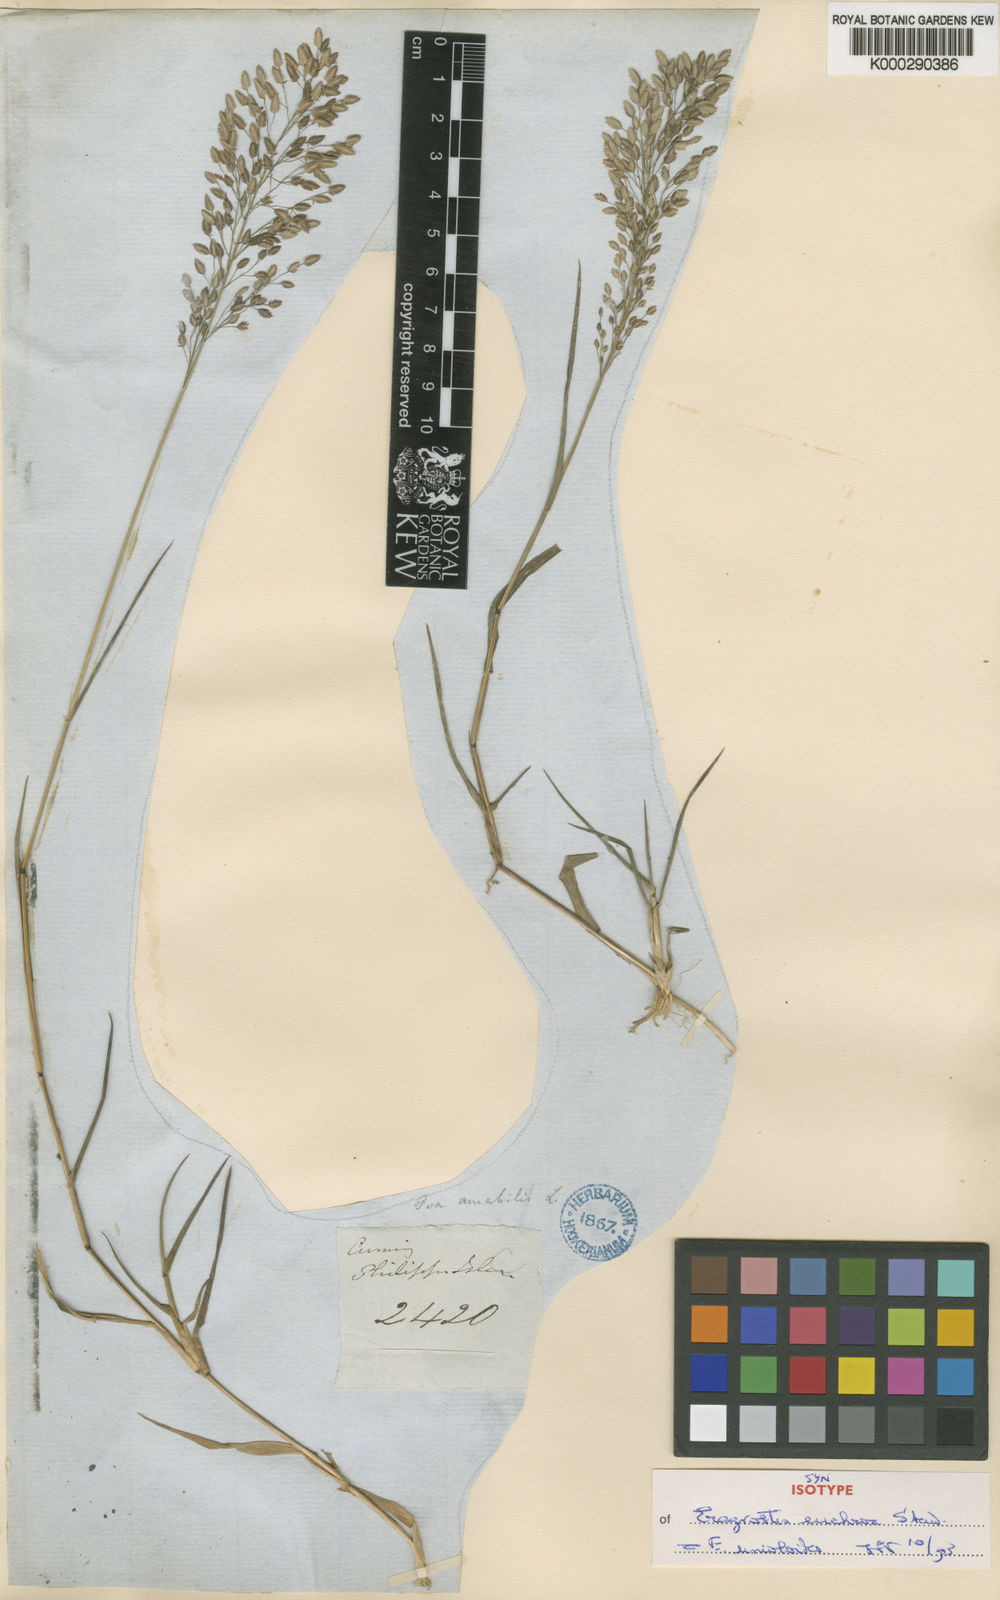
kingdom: Plantae
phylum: Tracheophyta
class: Liliopsida
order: Poales
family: Poaceae
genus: Eragrostis
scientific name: Eragrostis unioloides
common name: Chinese lovegrass
